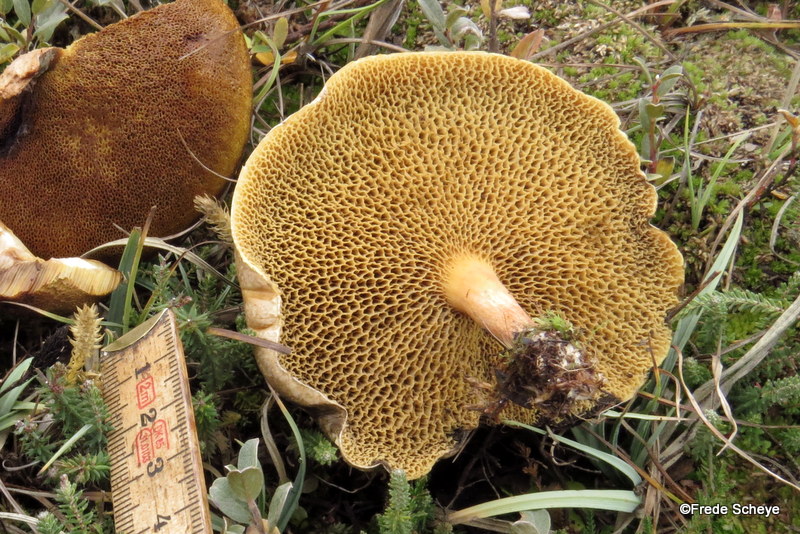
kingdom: Fungi
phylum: Basidiomycota
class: Agaricomycetes
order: Boletales
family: Suillaceae
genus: Suillus
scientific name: Suillus bovinus
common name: grovporet slimrørhat
